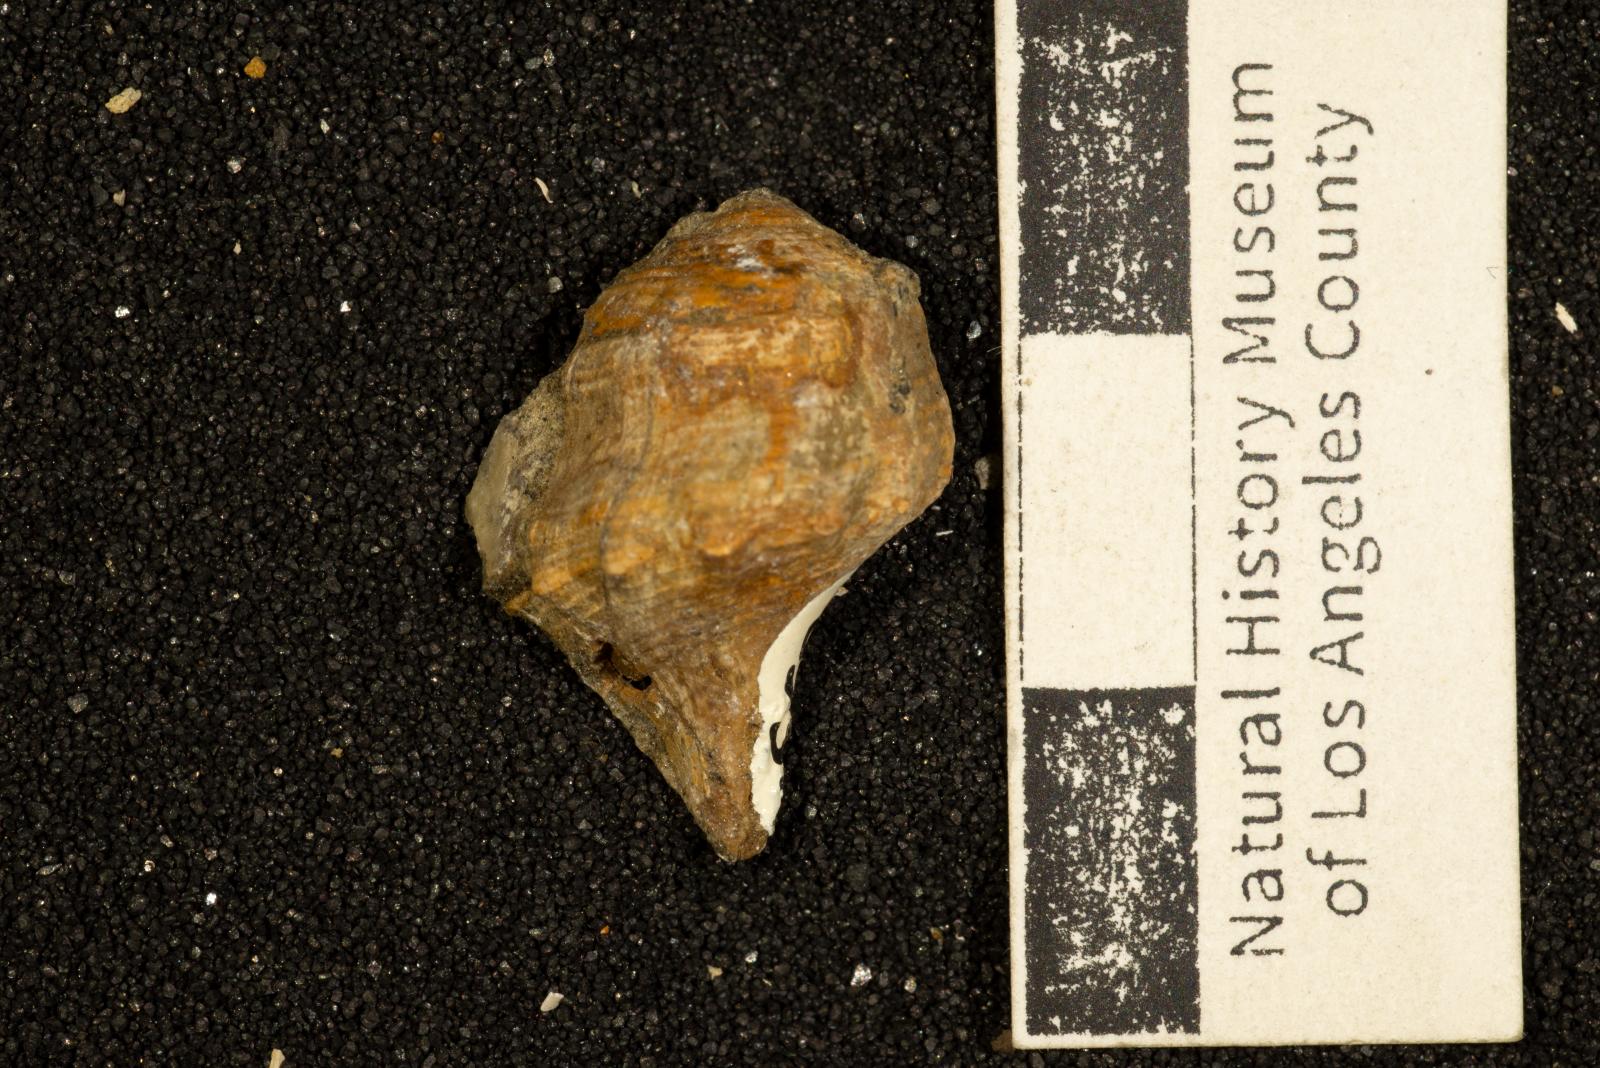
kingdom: Animalia
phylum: Mollusca
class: Gastropoda
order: Neogastropoda
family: Perissityidae
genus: Perissitys
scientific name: Perissitys colocara
